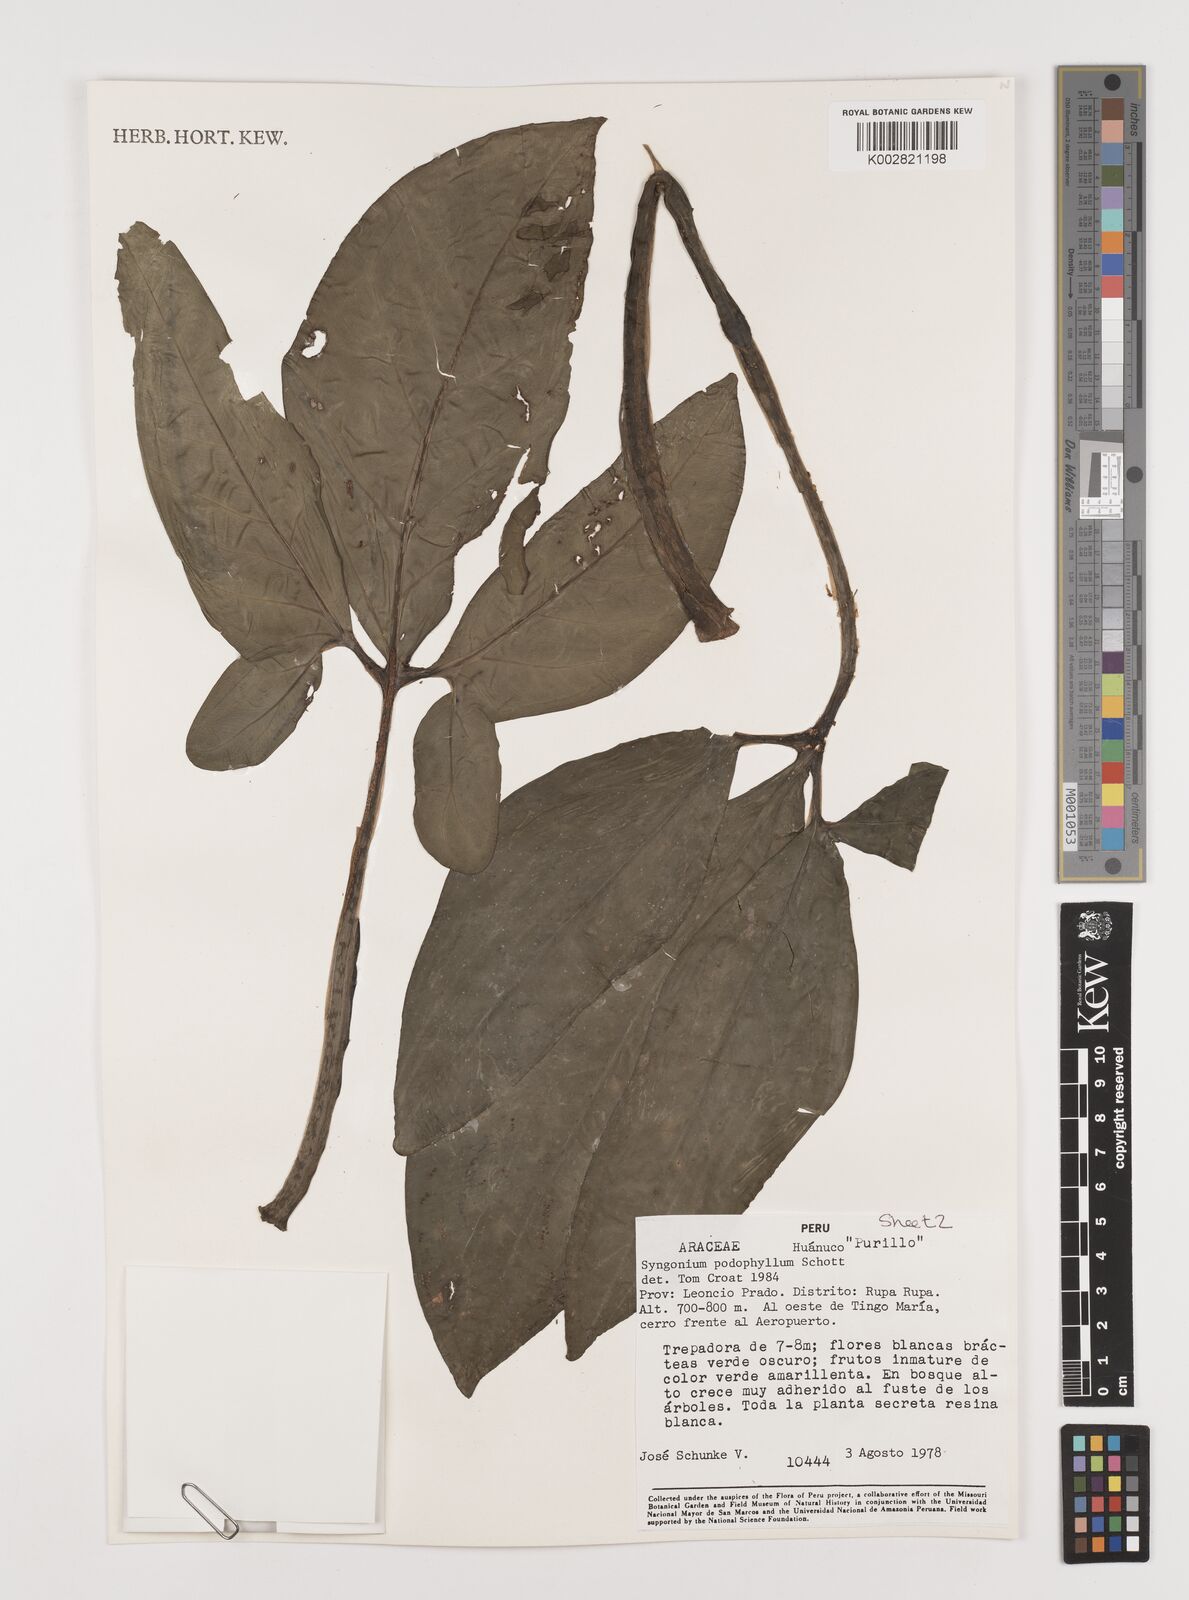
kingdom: Plantae
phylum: Tracheophyta
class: Liliopsida
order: Alismatales
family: Araceae
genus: Syngonium
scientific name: Syngonium podophyllum
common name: American evergreen
